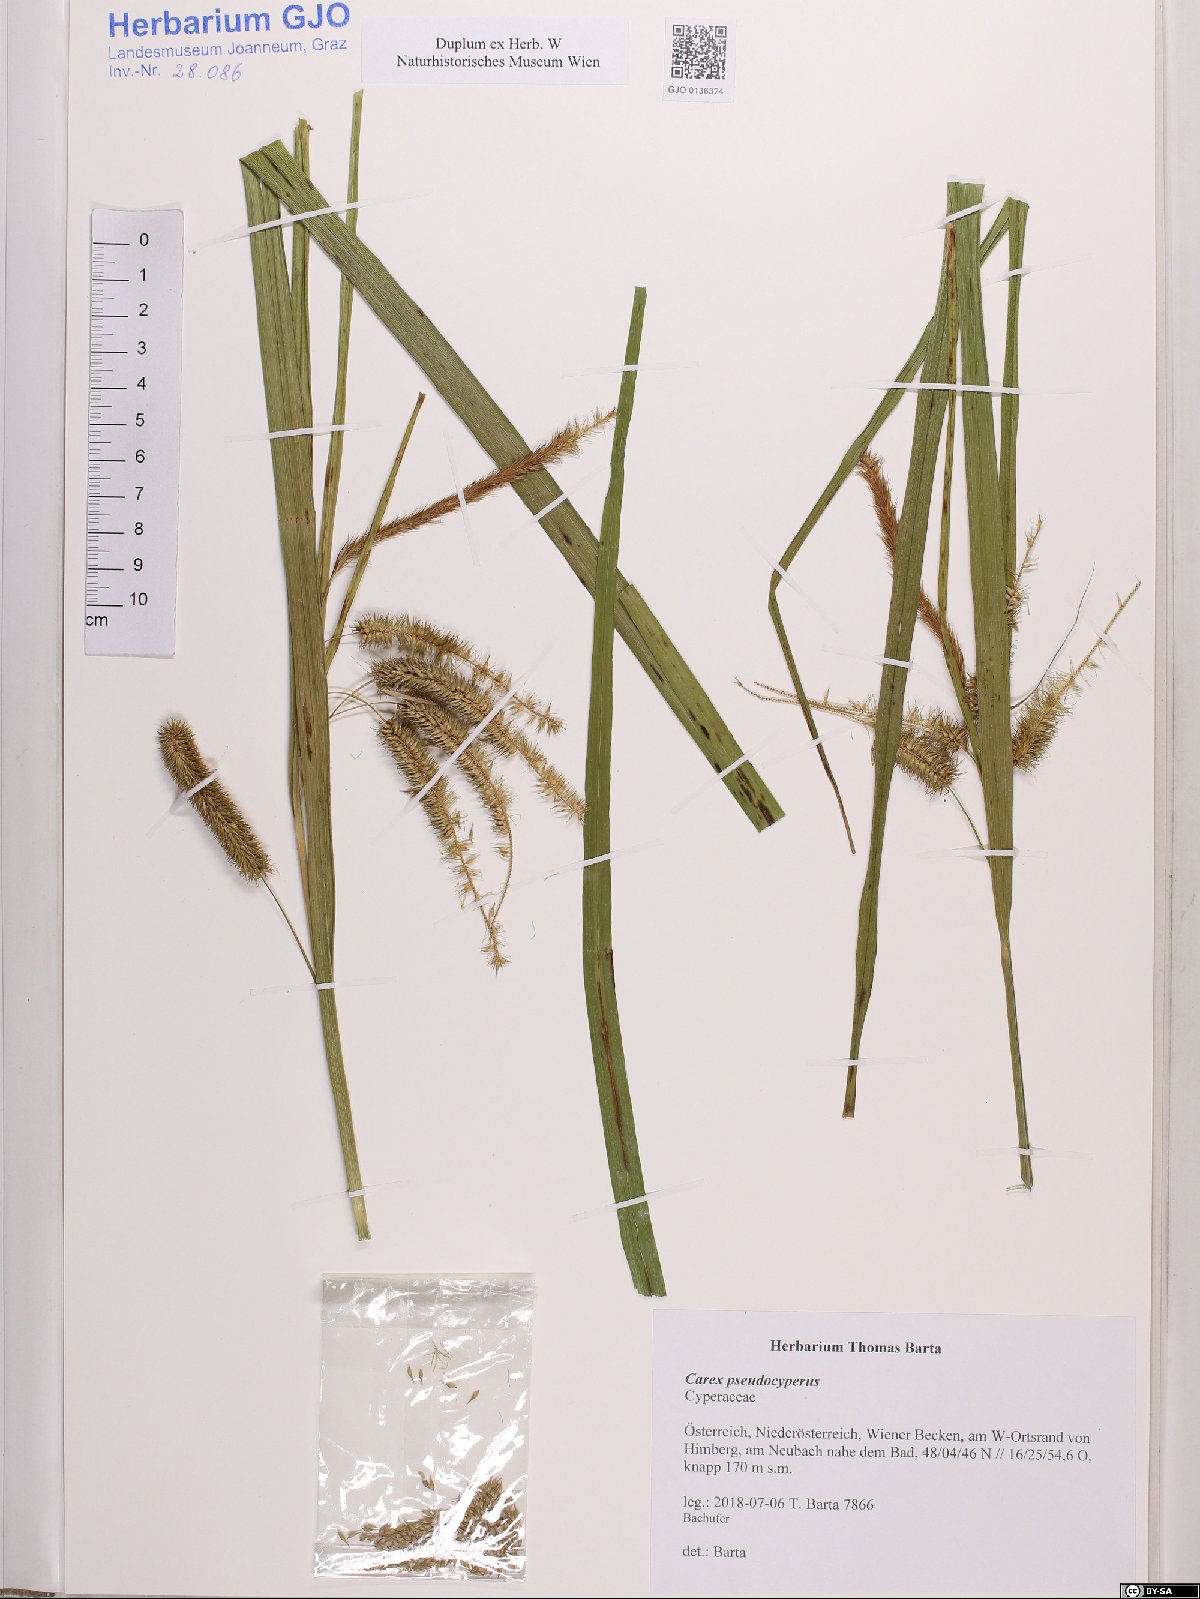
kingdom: Plantae
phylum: Tracheophyta
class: Liliopsida
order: Poales
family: Cyperaceae
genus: Carex
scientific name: Carex pseudocyperus
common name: Cyperus sedge
